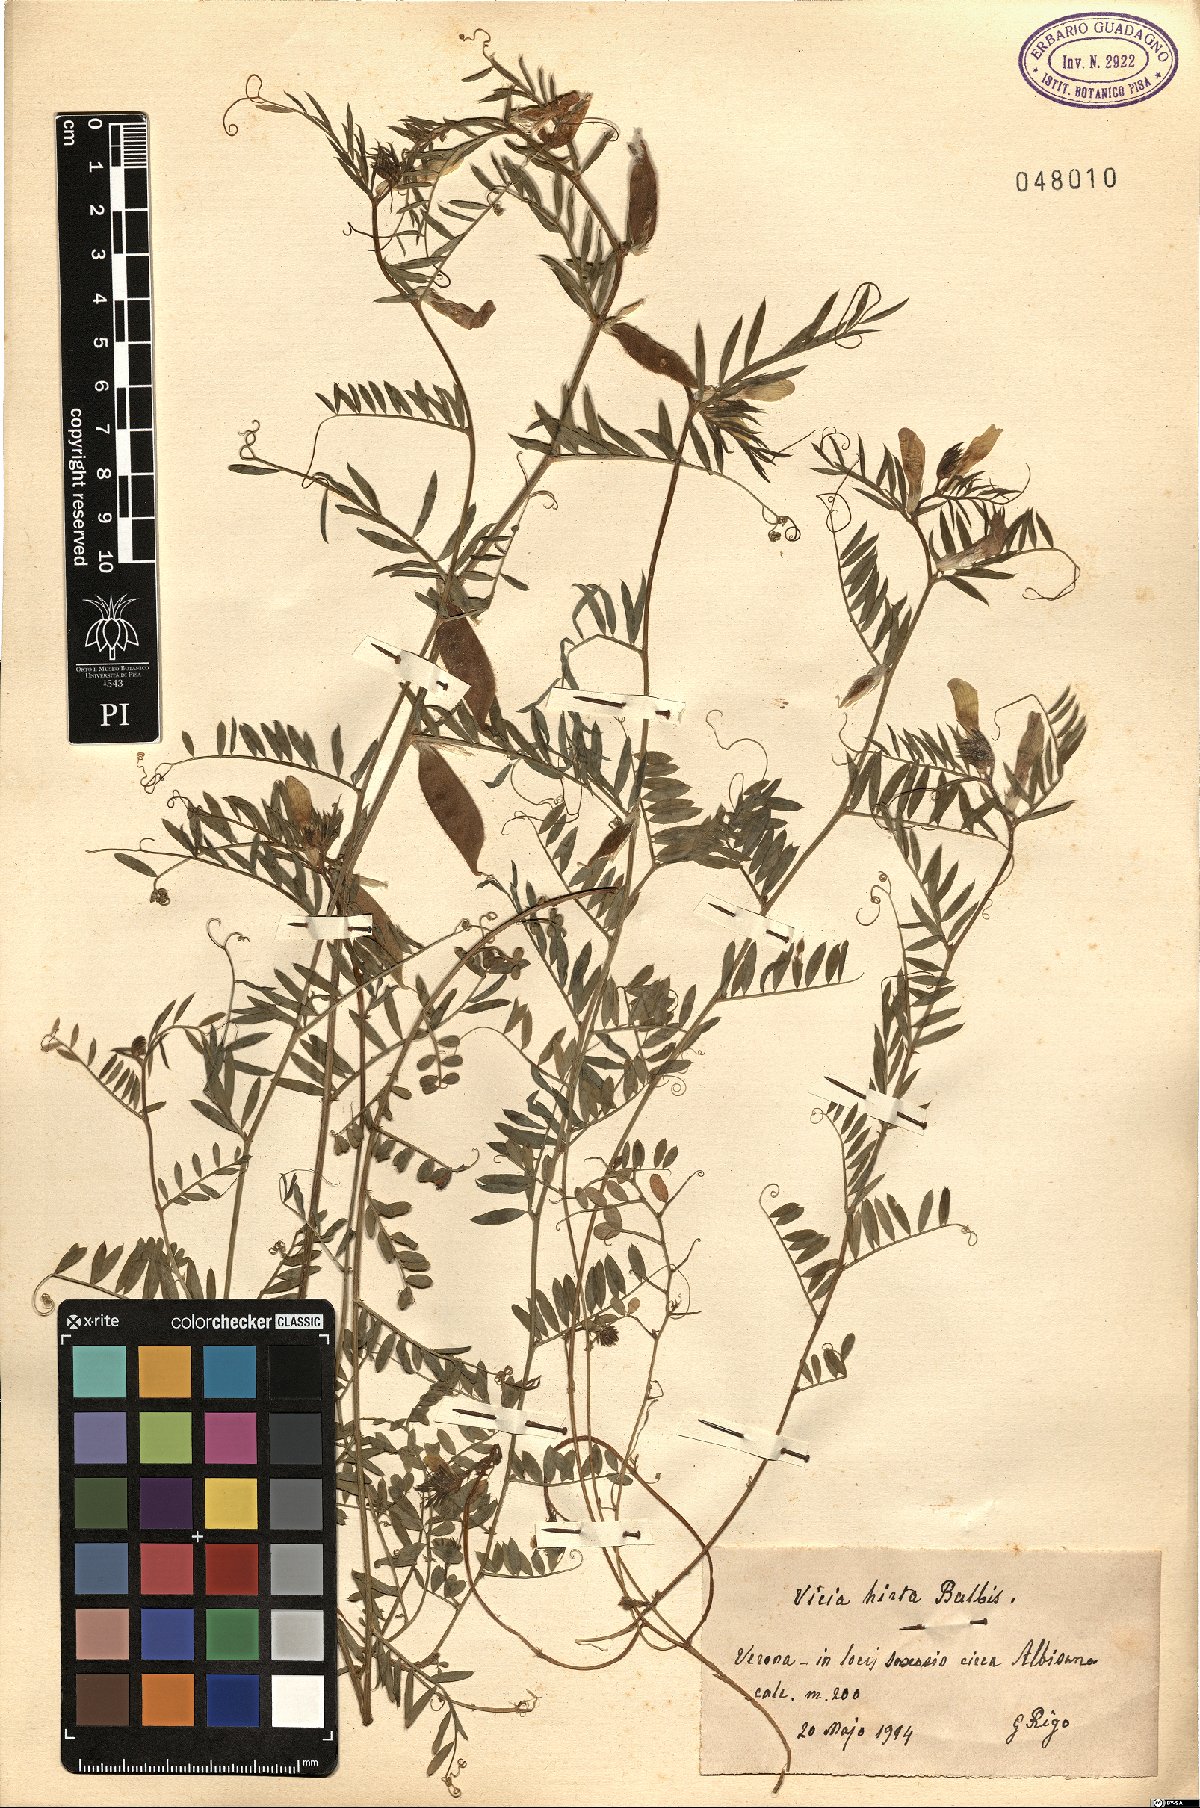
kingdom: Plantae
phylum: Tracheophyta
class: Magnoliopsida
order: Fabales
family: Fabaceae
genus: Vicia
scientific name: Vicia lutea
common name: Smooth yellow vetch
